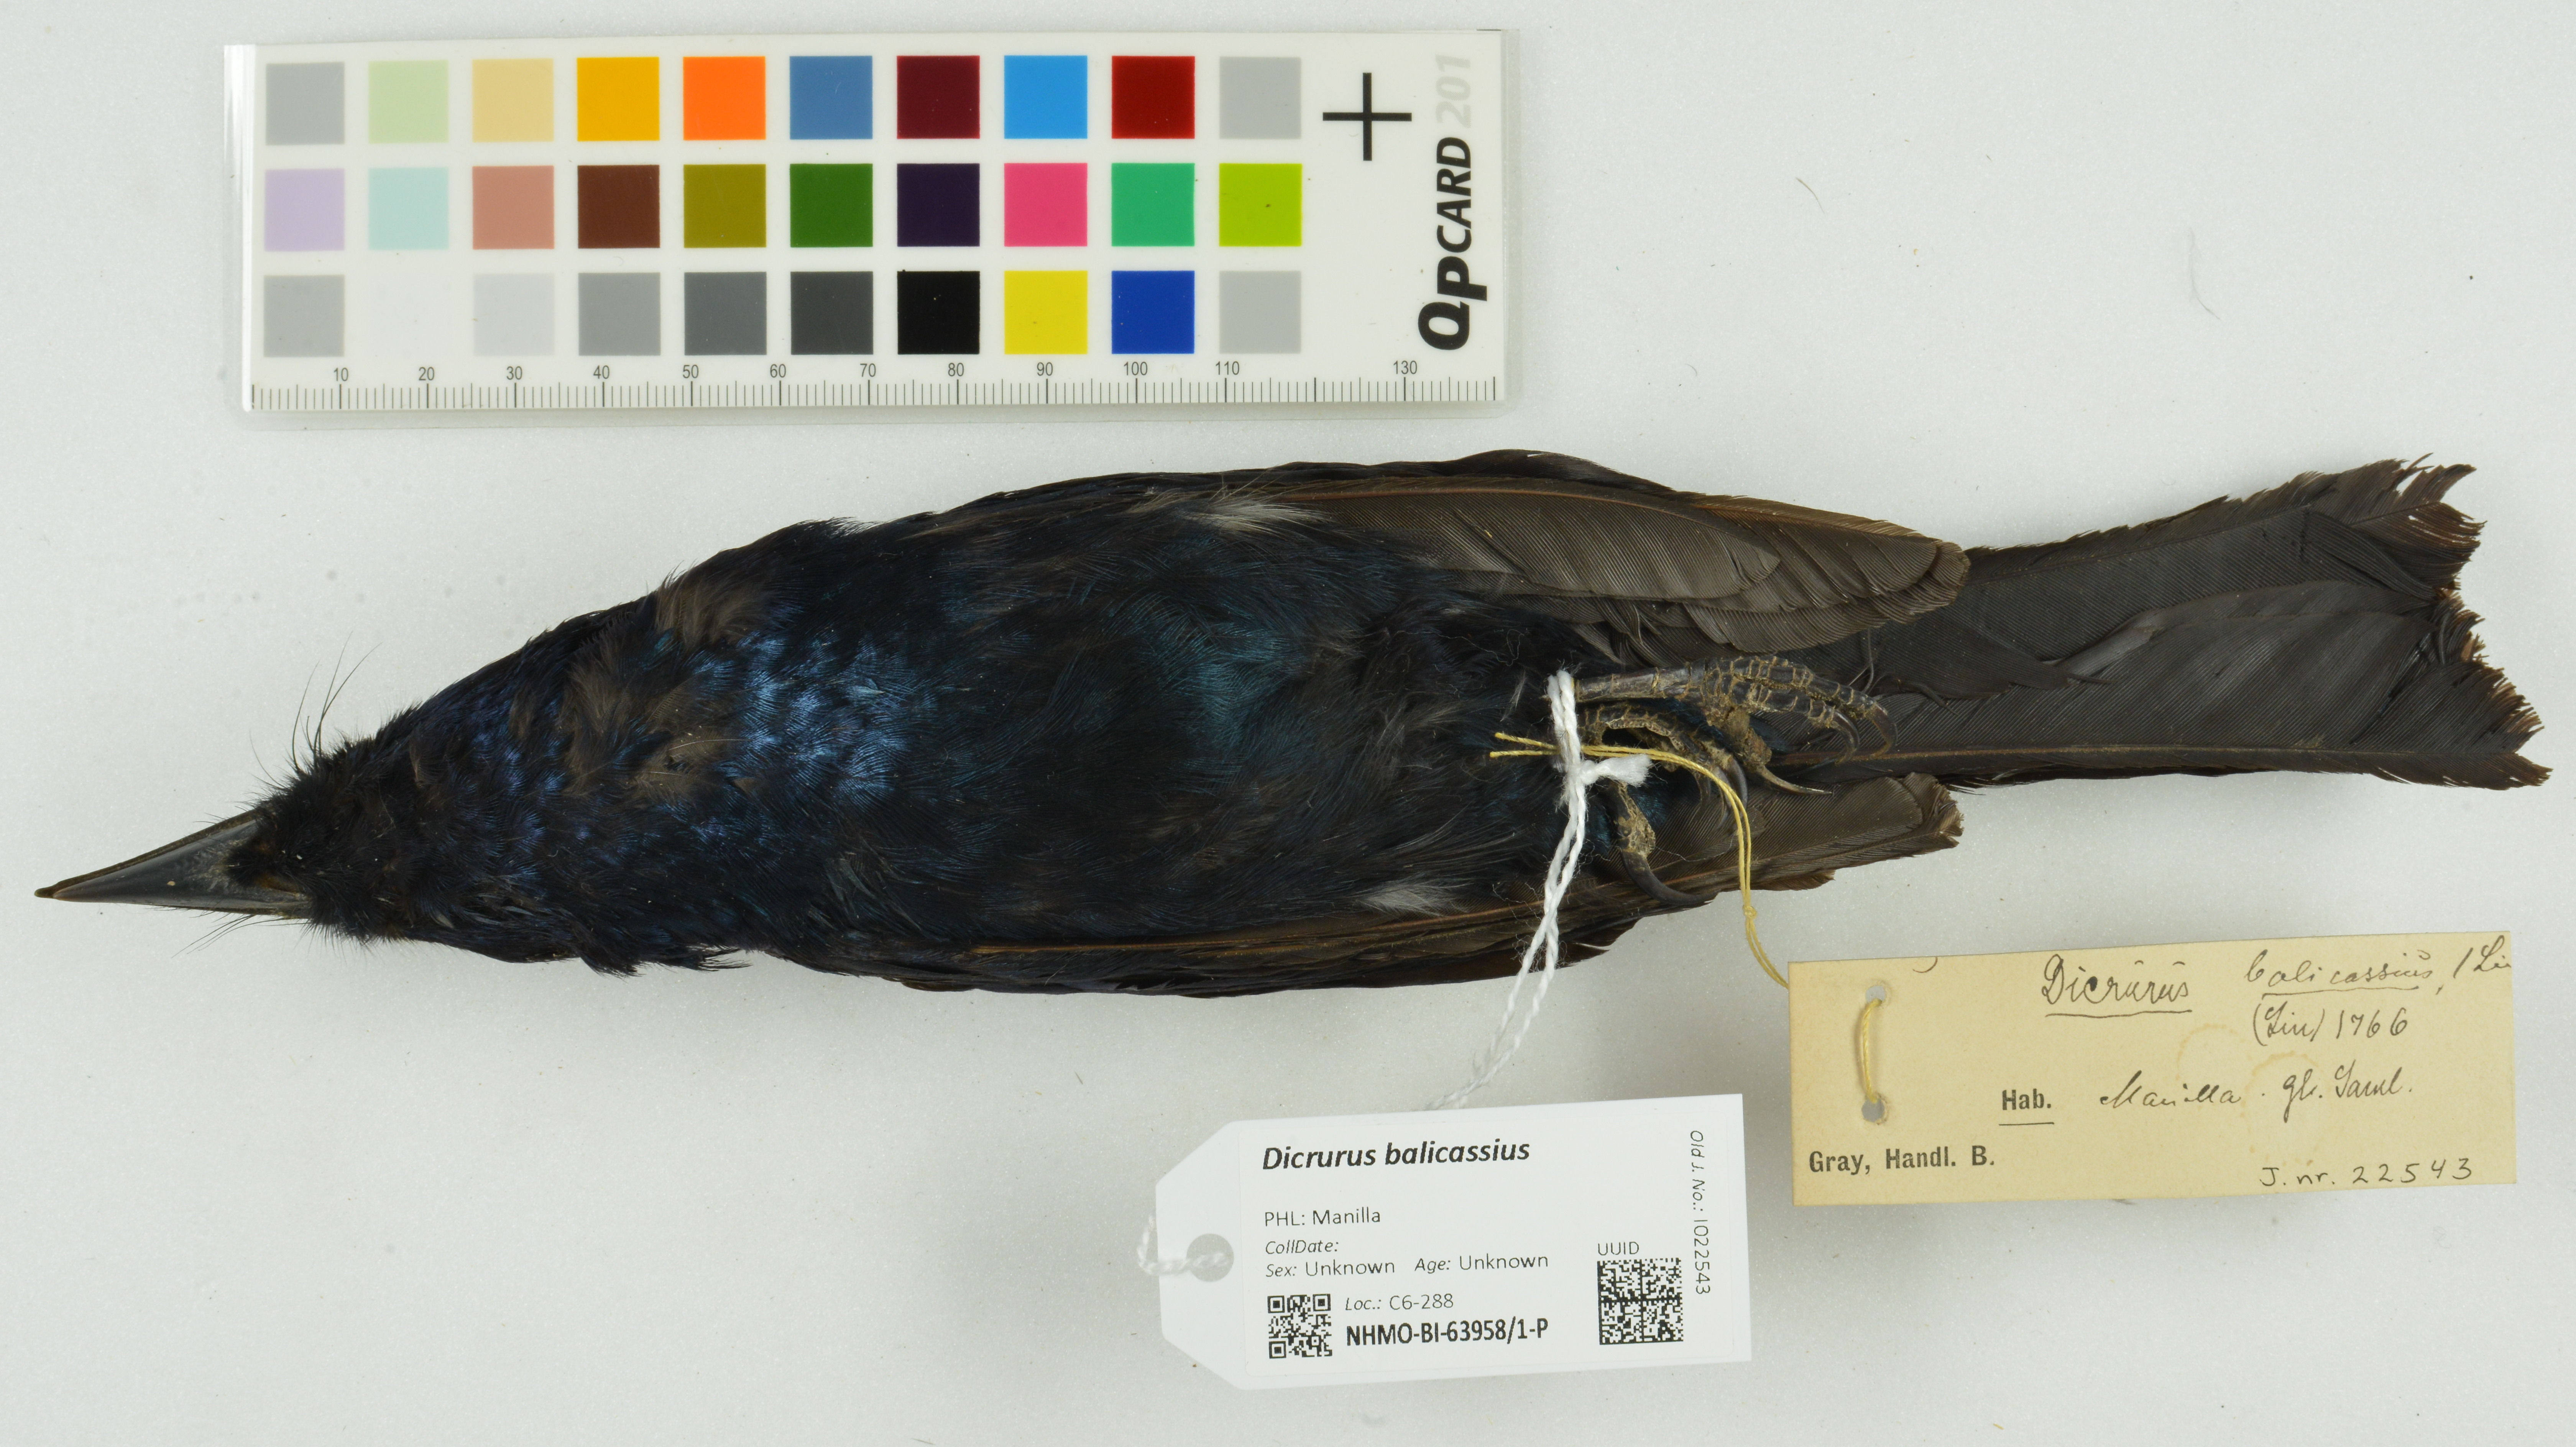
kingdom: Animalia
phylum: Chordata
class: Aves
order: Passeriformes
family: Dicruridae
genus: Dicrurus
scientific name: Dicrurus balicassius
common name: Balicassiao
